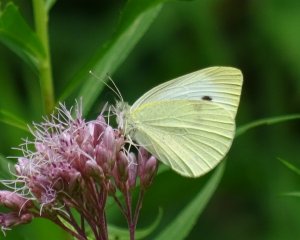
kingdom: Animalia
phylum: Arthropoda
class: Insecta
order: Lepidoptera
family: Pieridae
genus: Pieris
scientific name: Pieris rapae
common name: Cabbage White
